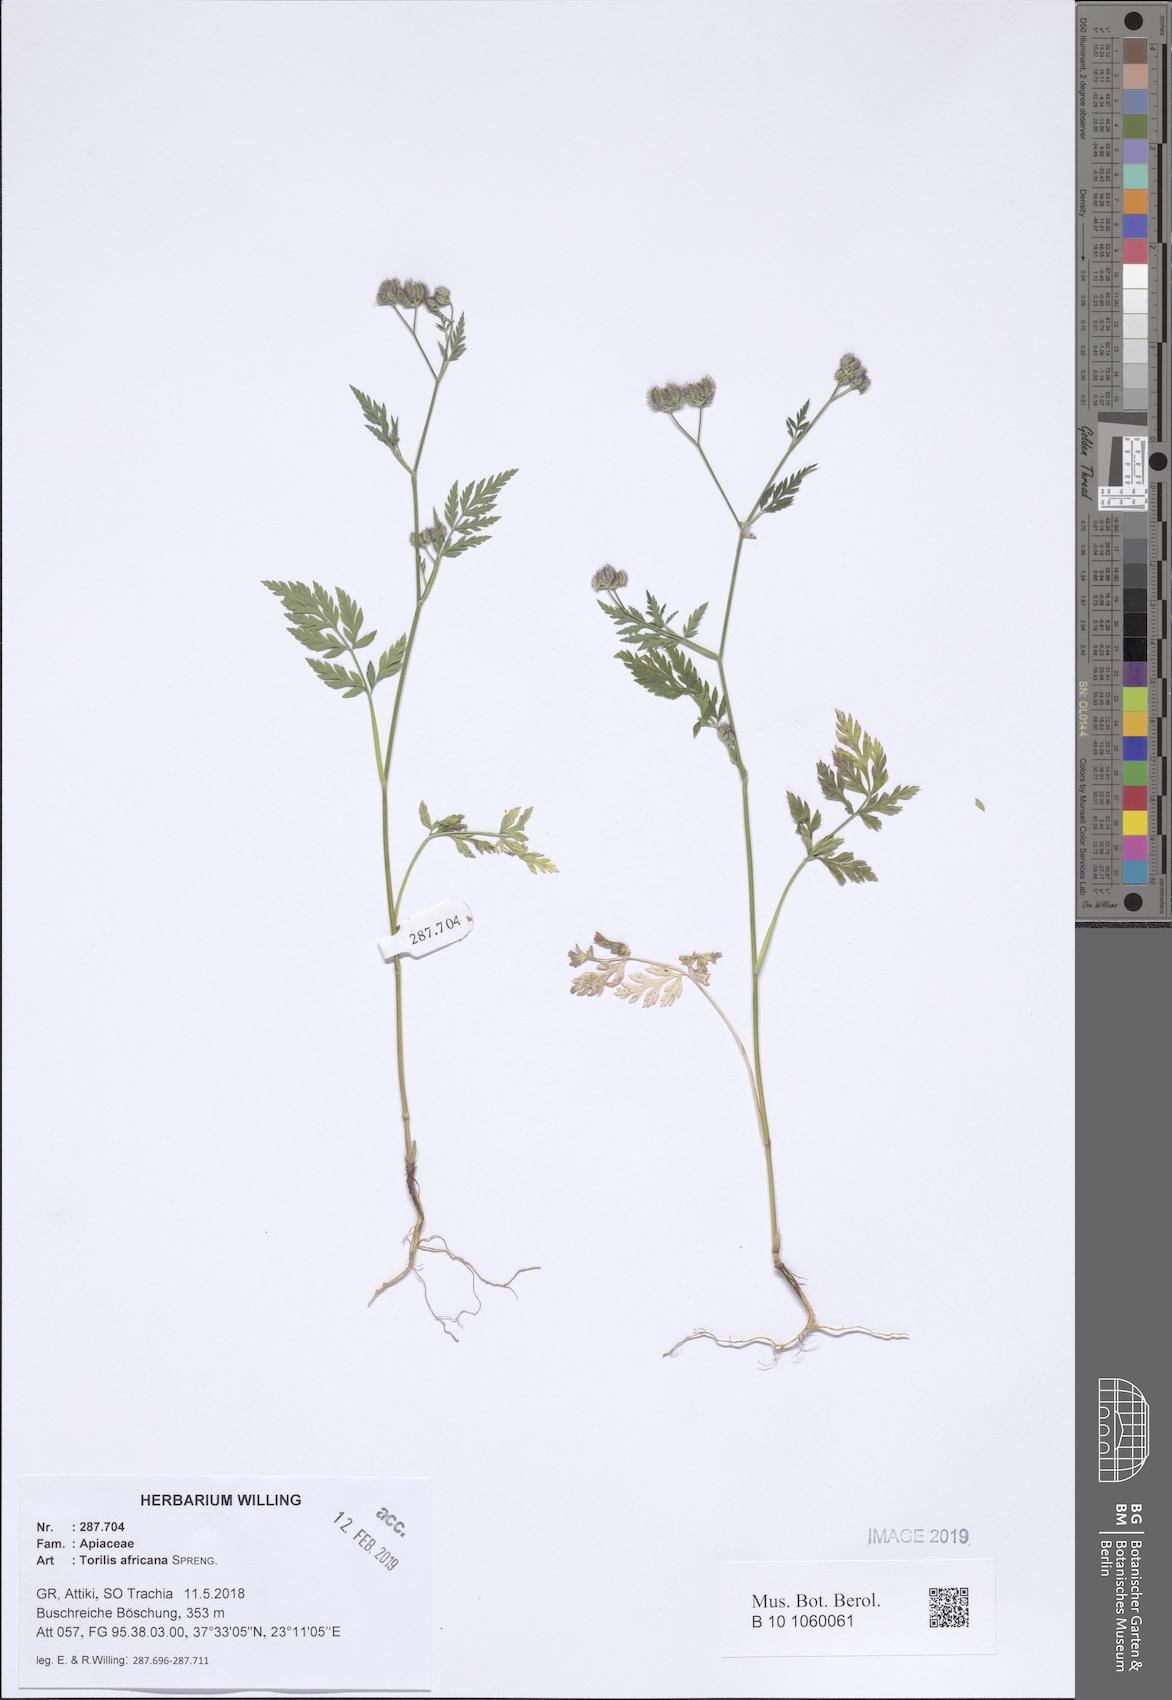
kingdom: Plantae
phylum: Tracheophyta
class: Magnoliopsida
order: Apiales
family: Apiaceae
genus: Torilis
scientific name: Torilis africana
